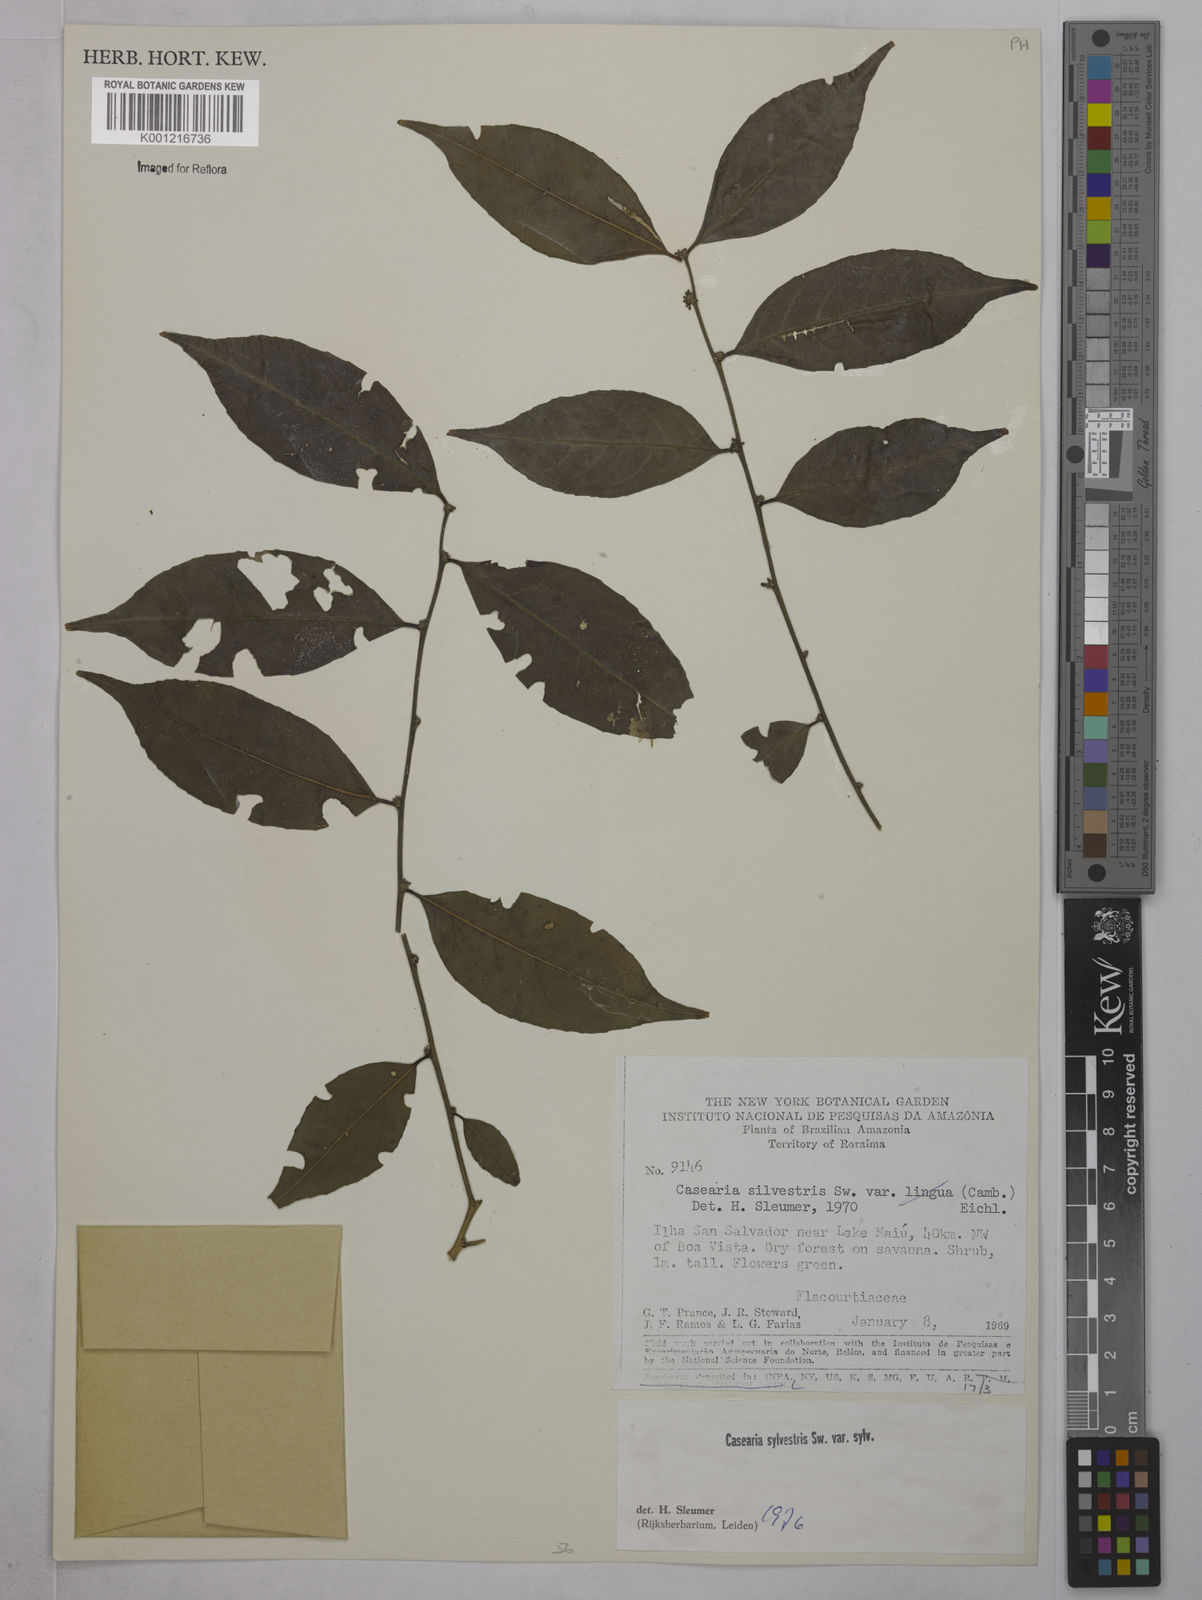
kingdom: Plantae
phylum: Tracheophyta
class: Magnoliopsida
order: Malpighiales
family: Salicaceae
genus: Casearia
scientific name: Casearia sylvestris
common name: Wild sage
